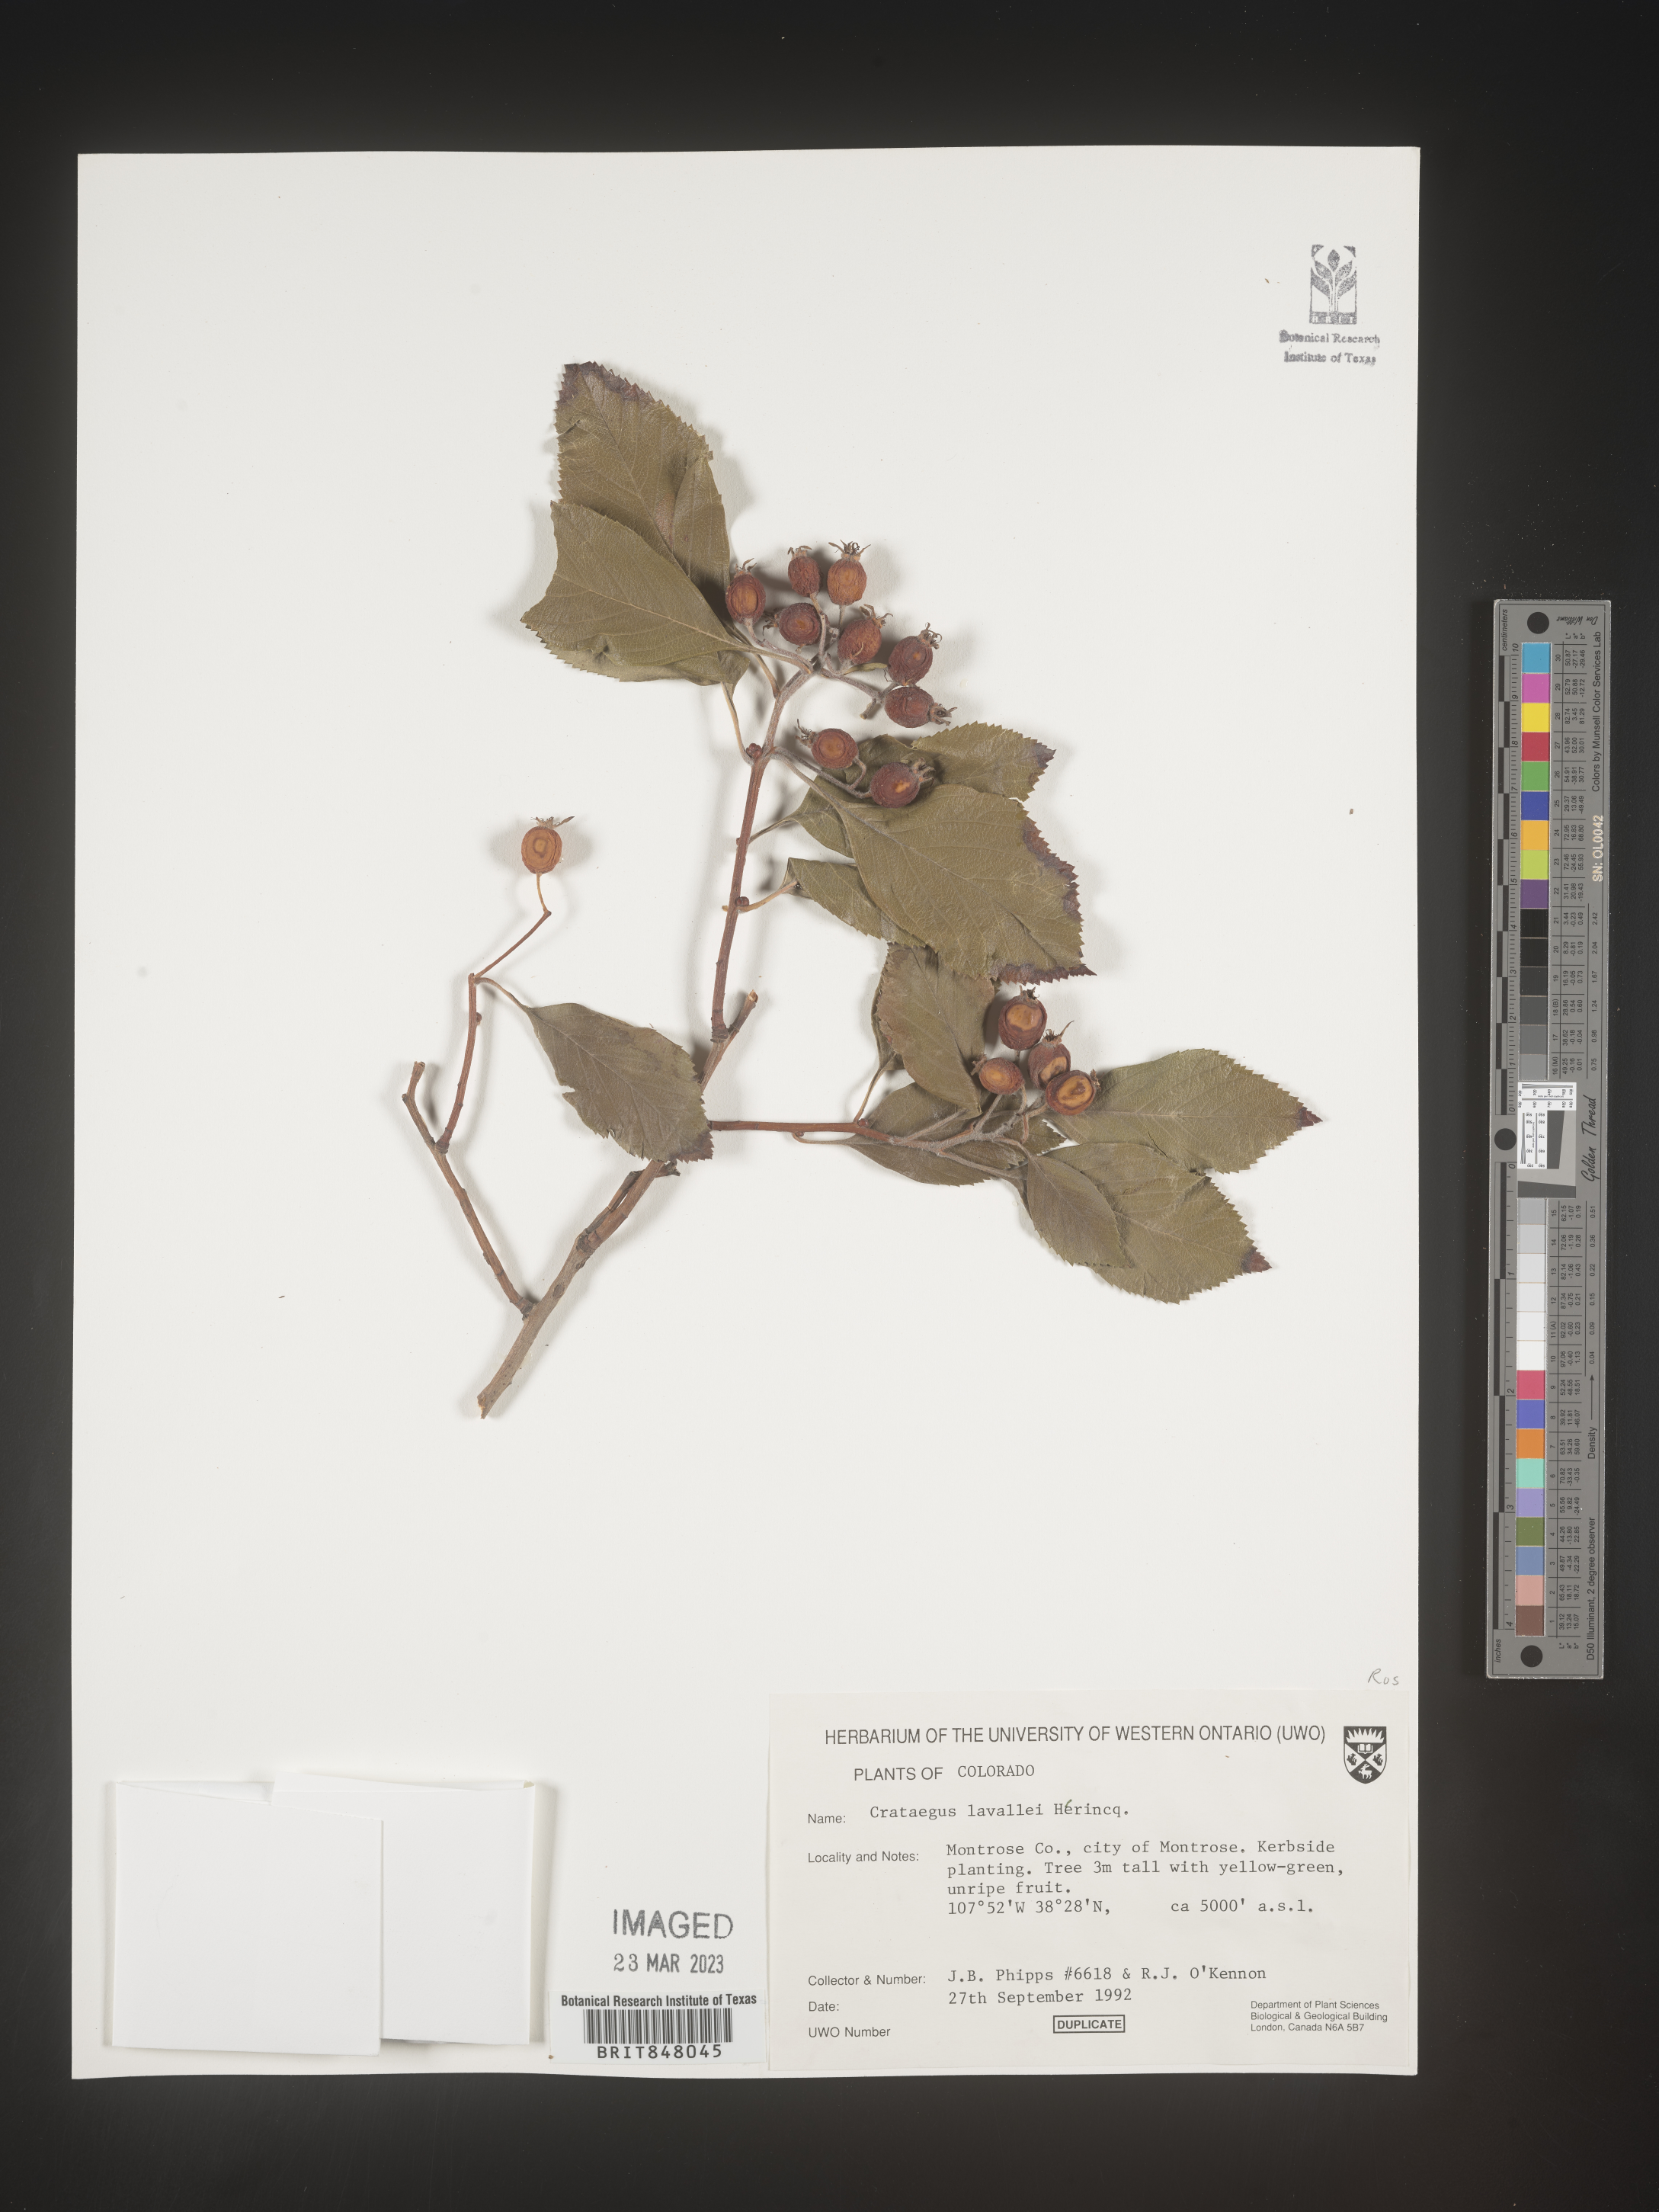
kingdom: Plantae
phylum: Tracheophyta
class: Magnoliopsida
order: Rosales
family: Rosaceae
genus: Crataegus
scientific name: Crataegus
